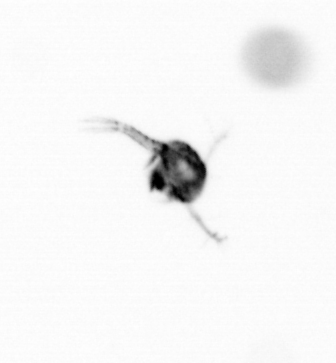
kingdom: Animalia
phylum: Arthropoda
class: Copepoda
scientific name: Copepoda
